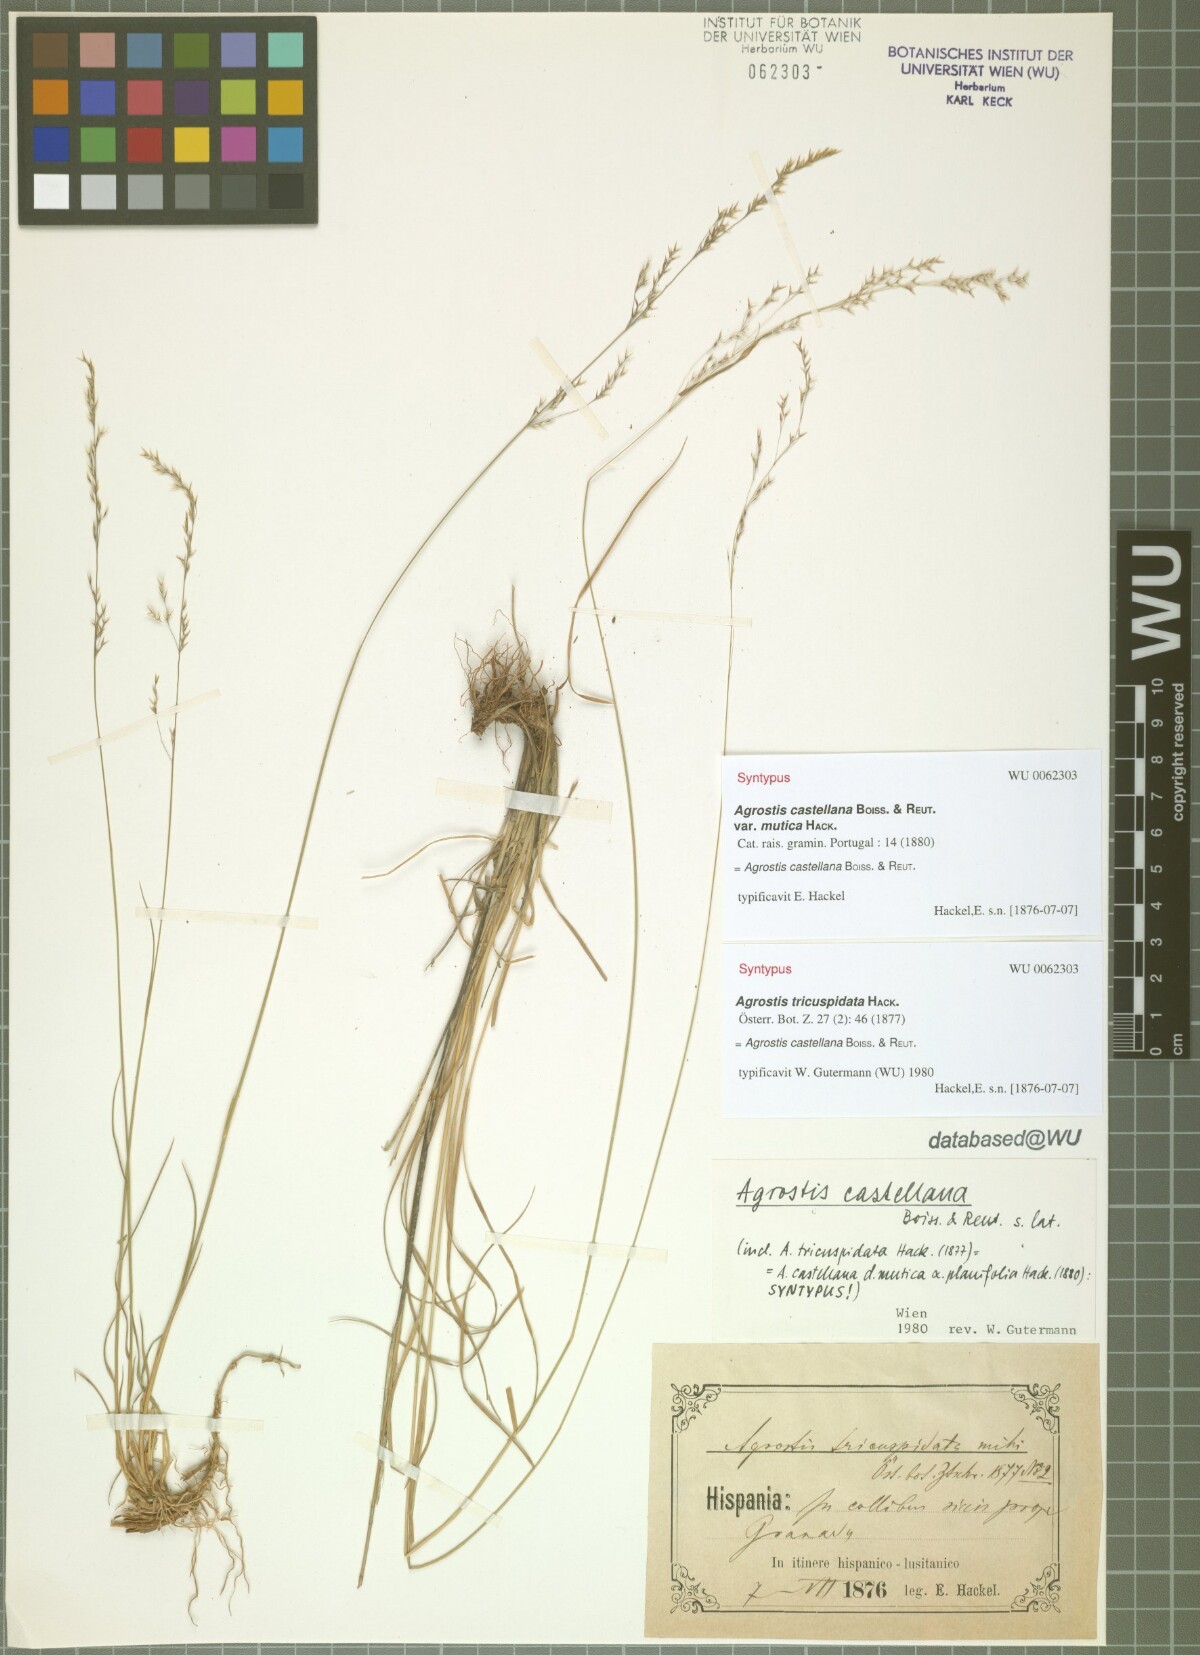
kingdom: Plantae
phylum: Tracheophyta
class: Liliopsida
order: Poales
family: Poaceae
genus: Agrostis
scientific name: Agrostis castellana
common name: Highland bent
